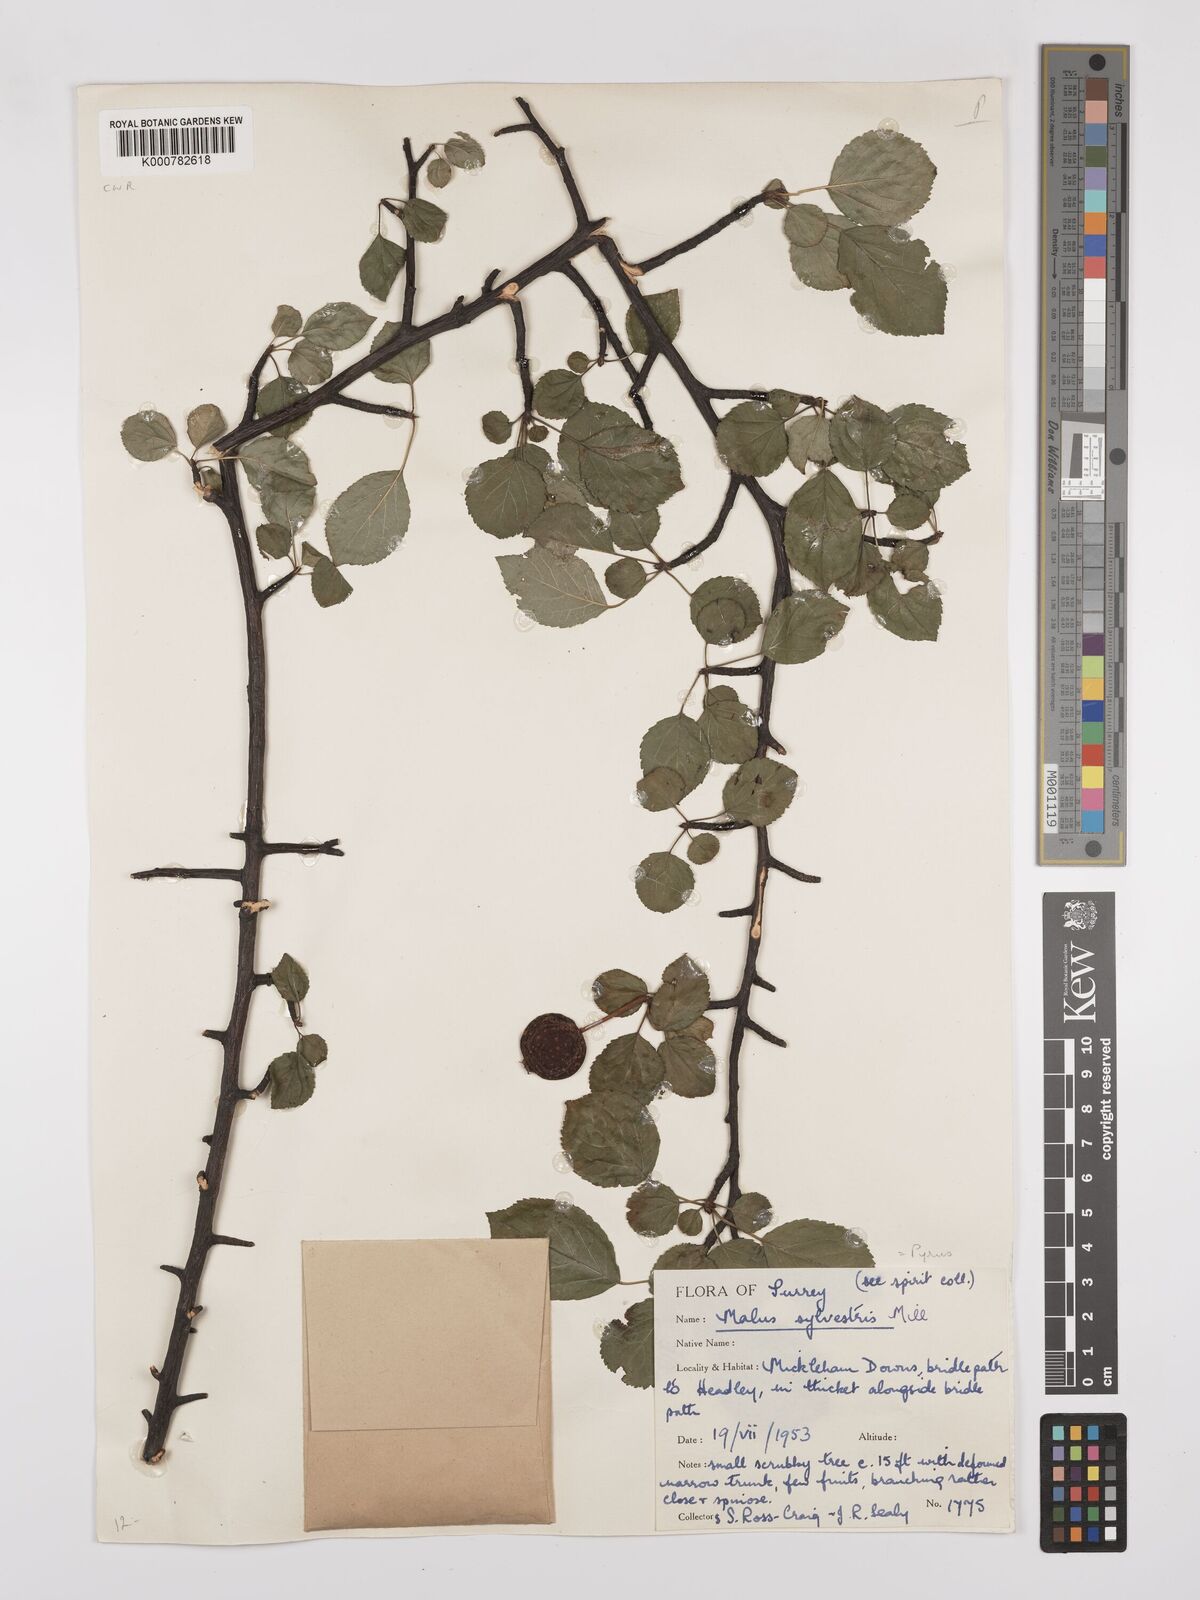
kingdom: Plantae
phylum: Tracheophyta
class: Magnoliopsida
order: Rosales
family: Rosaceae
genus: Malus
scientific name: Malus sylvestris
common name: Crab apple
